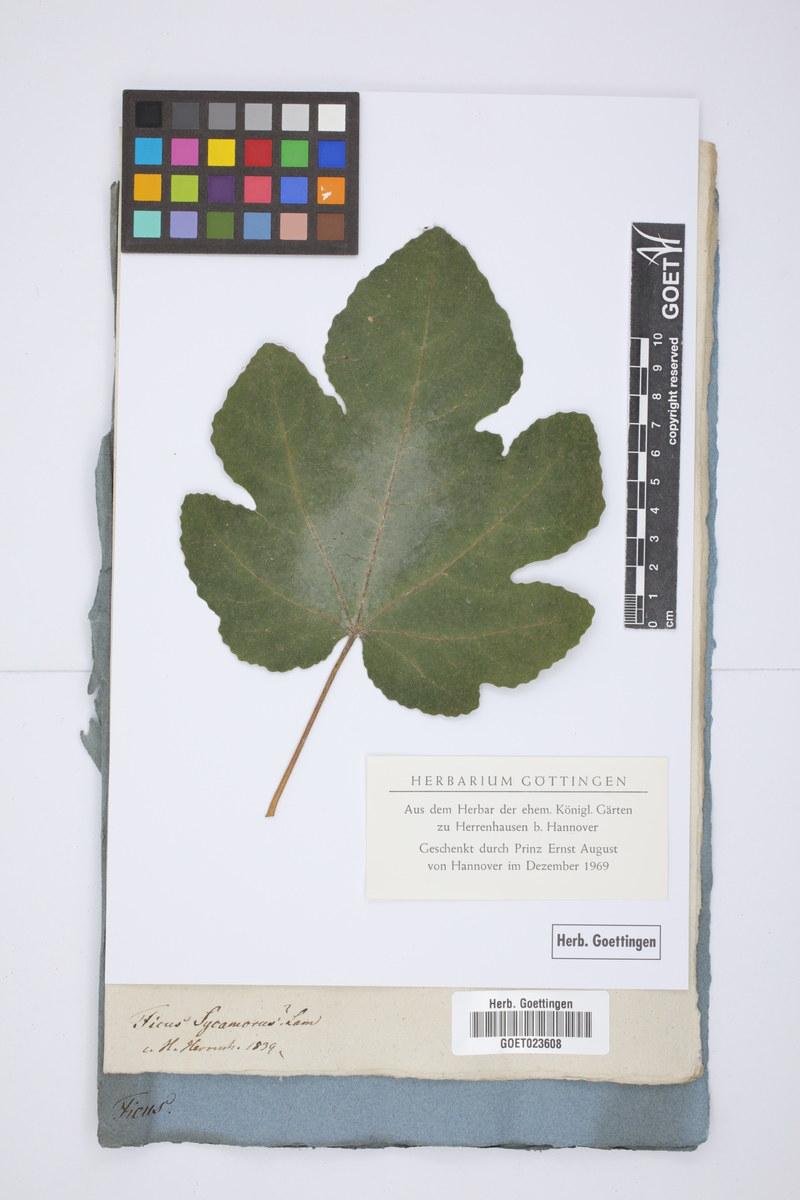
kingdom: Plantae
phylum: Tracheophyta
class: Magnoliopsida
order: Rosales
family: Moraceae
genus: Ficus
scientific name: Ficus sycomorus
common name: Sycomore
